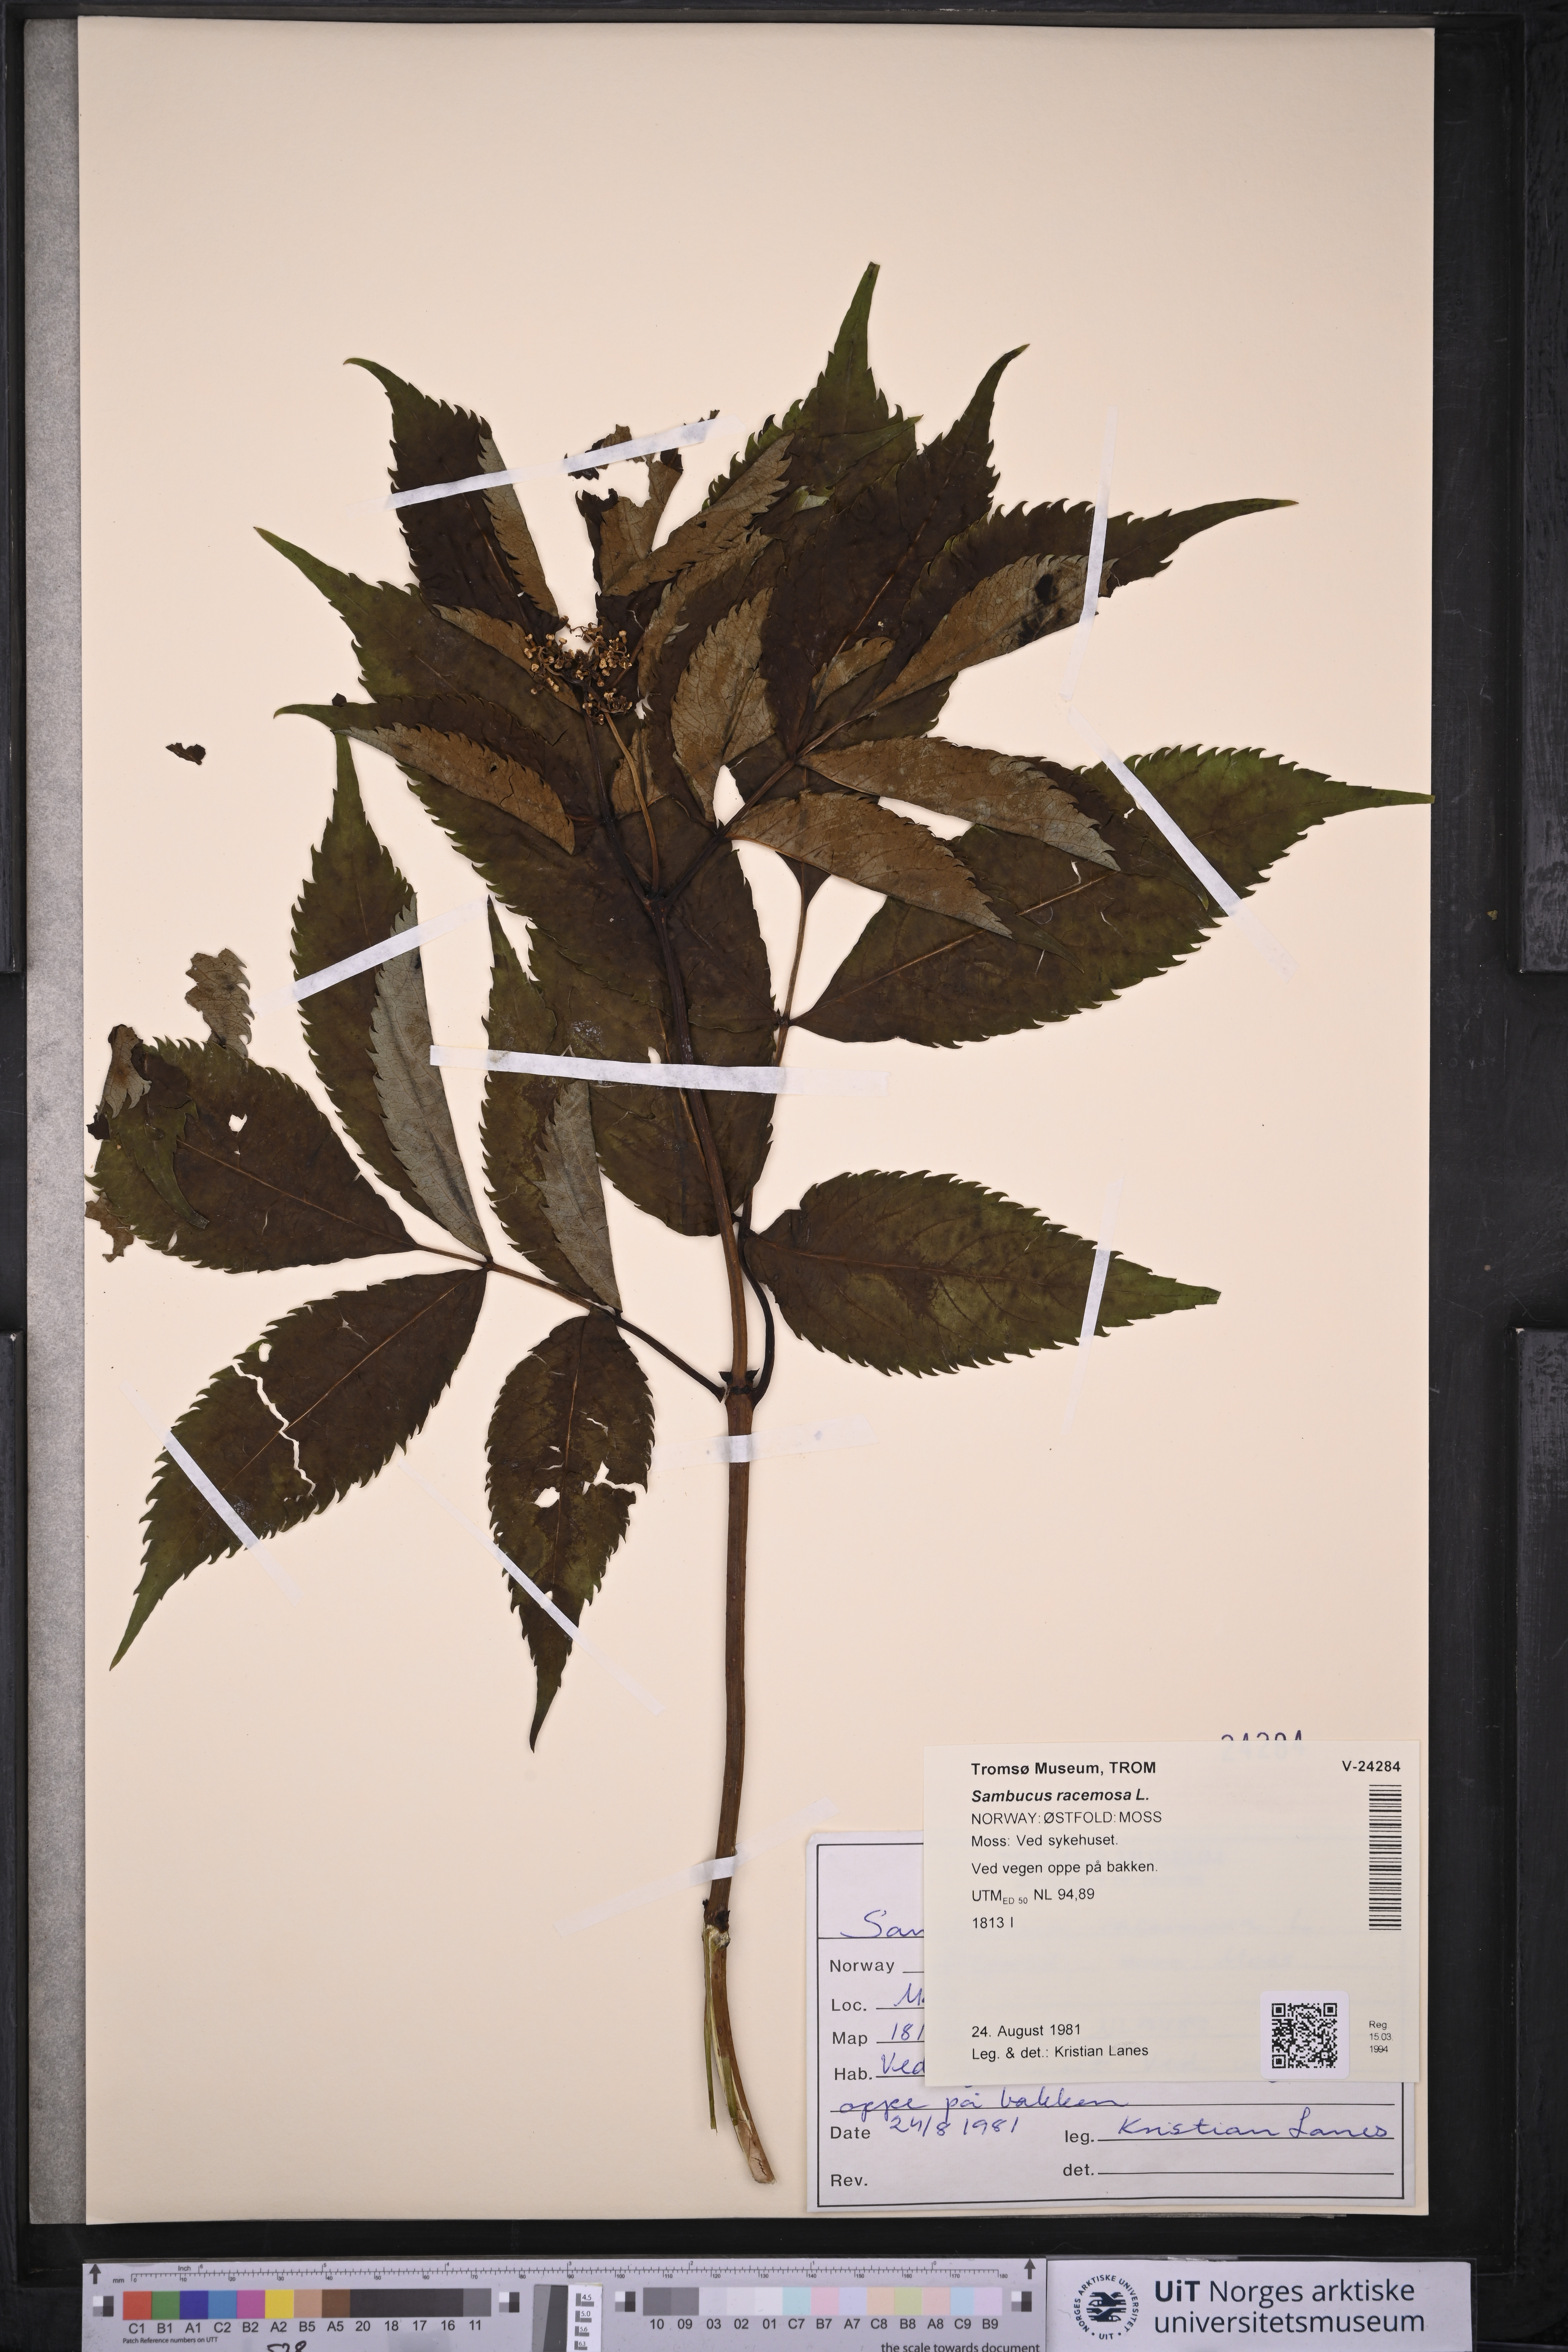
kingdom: Plantae
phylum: Tracheophyta
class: Magnoliopsida
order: Dipsacales
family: Viburnaceae
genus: Sambucus
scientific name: Sambucus racemosa
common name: Red-berried elder
